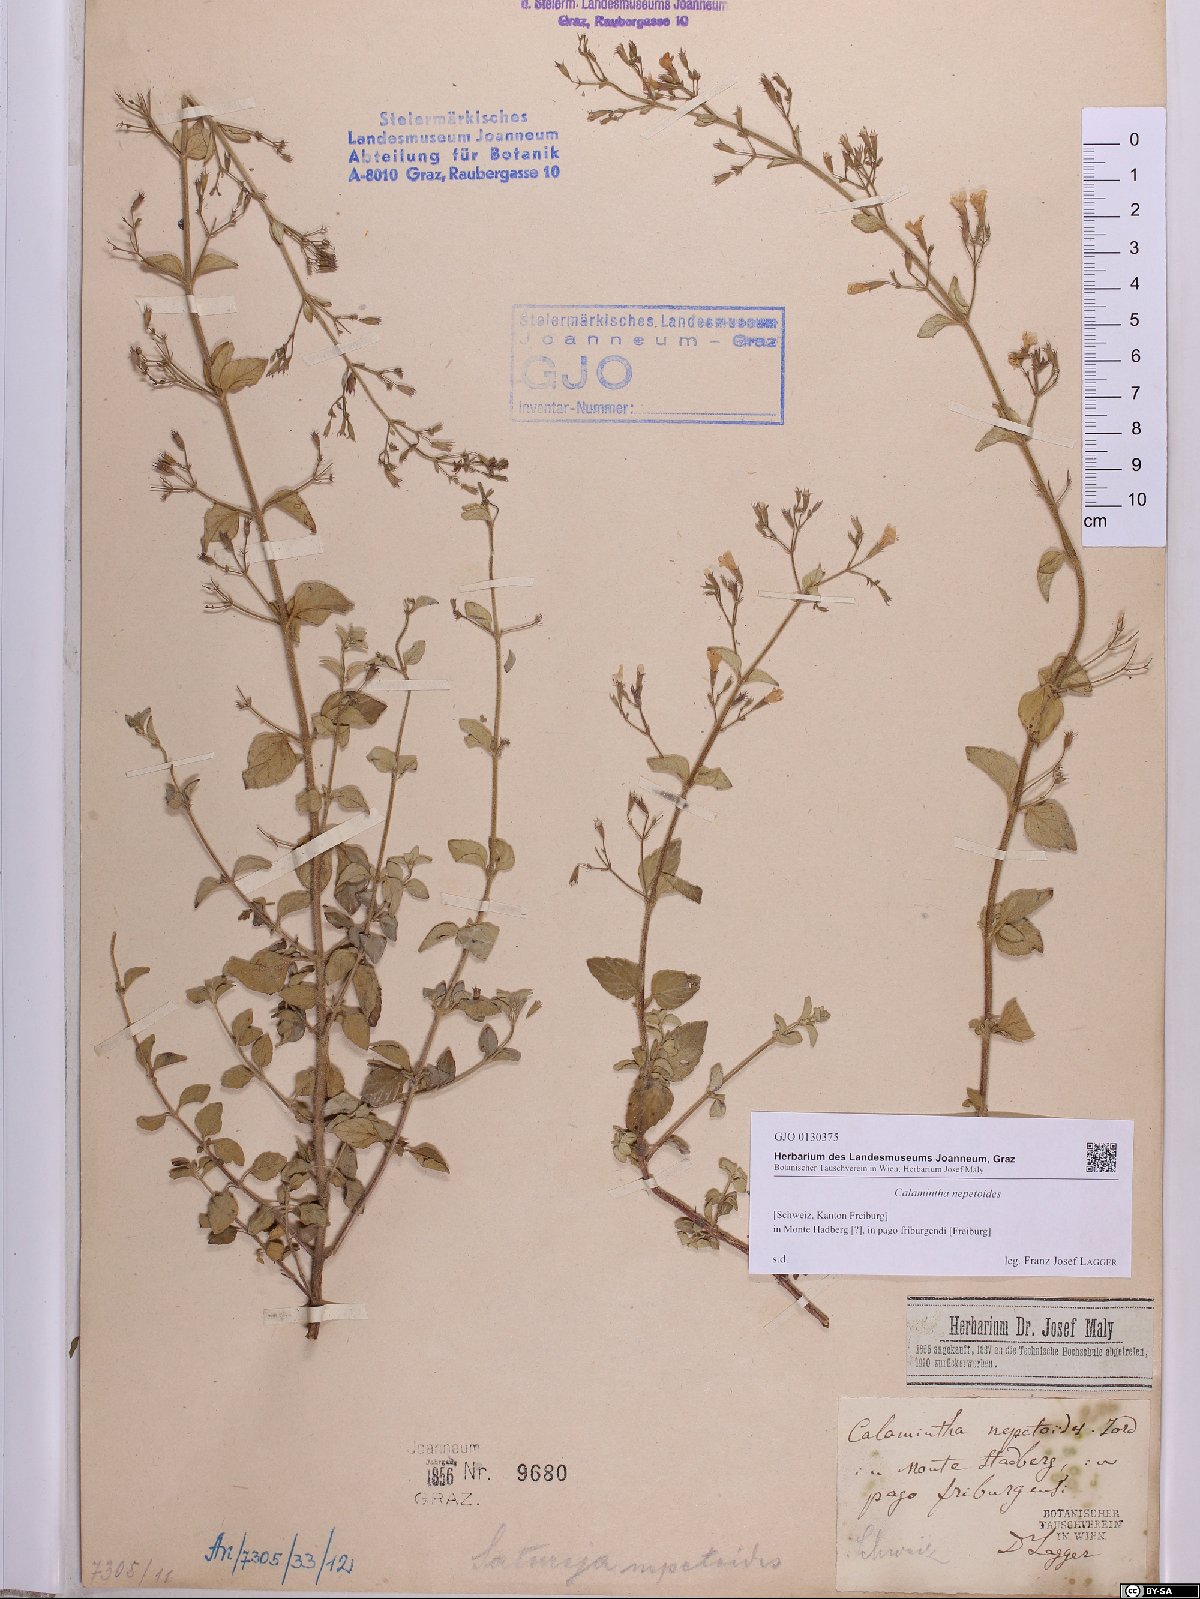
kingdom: Plantae
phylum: Tracheophyta
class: Magnoliopsida
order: Lamiales
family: Lamiaceae
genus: Clinopodium
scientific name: Clinopodium nepeta
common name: Lesser calamint
